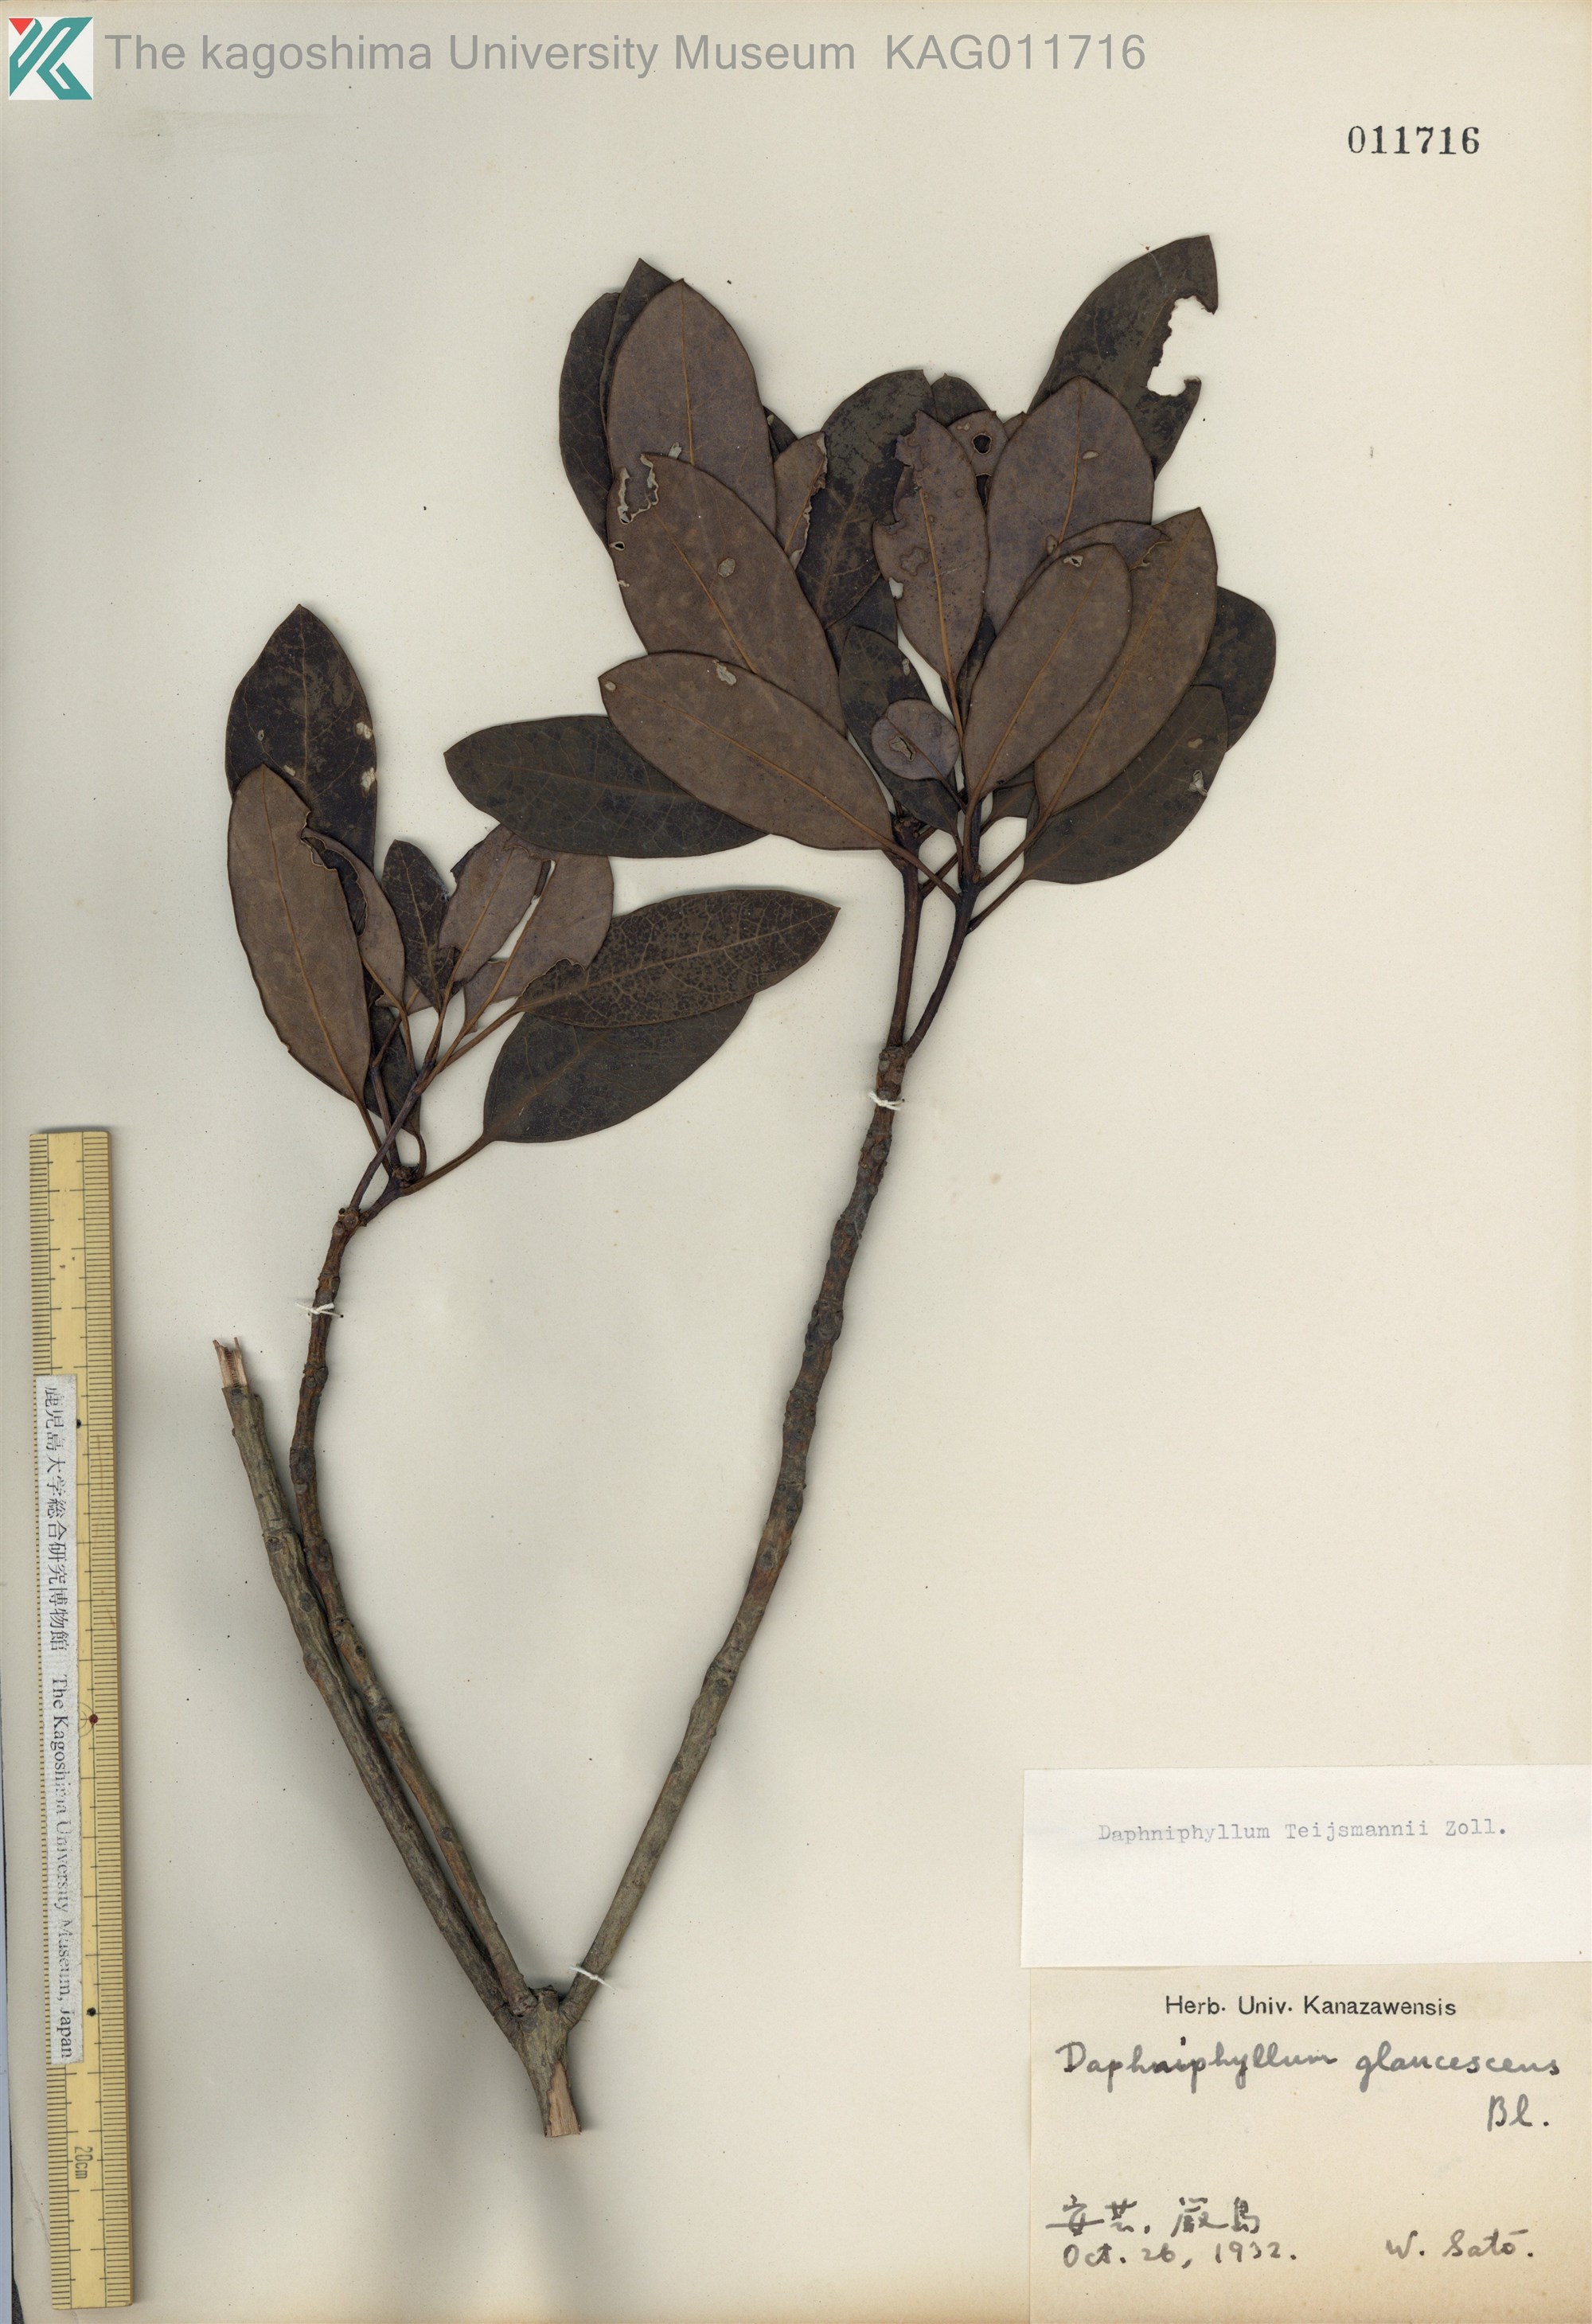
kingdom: Plantae
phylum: Tracheophyta
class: Magnoliopsida
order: Saxifragales
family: Daphniphyllaceae
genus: Daphniphyllum
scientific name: Daphniphyllum teijsmannii
